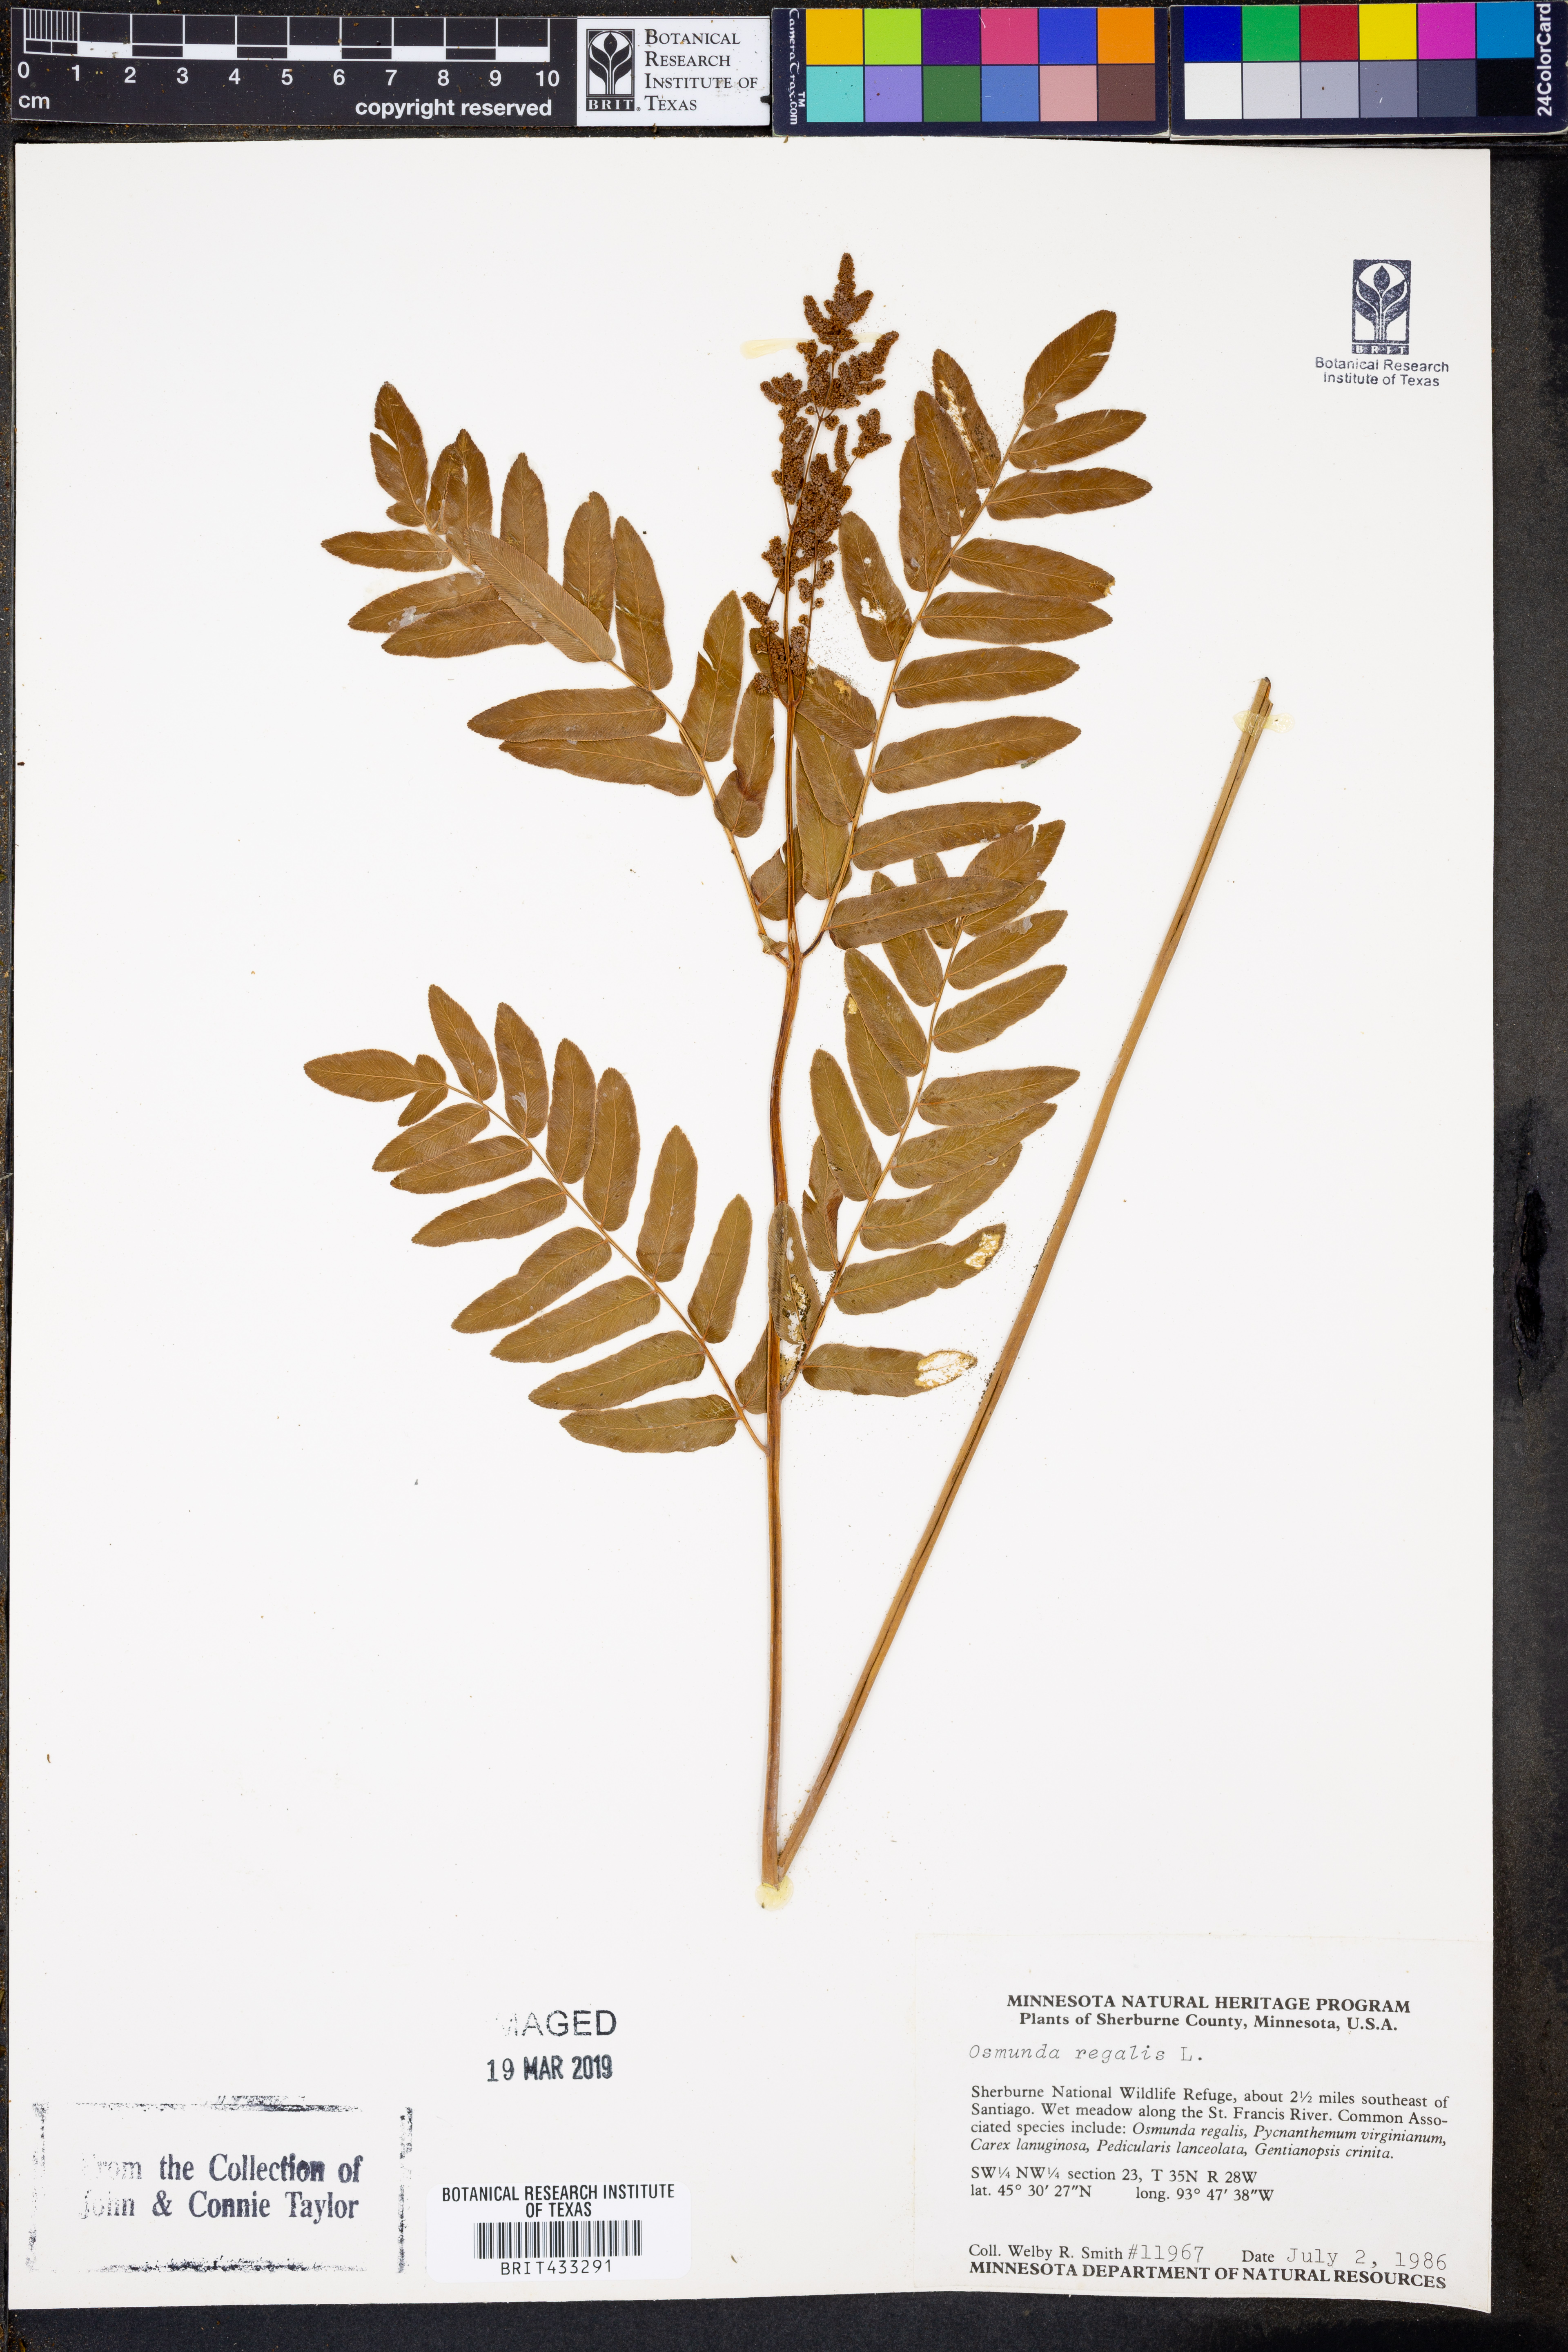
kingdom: Plantae
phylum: Tracheophyta
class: Polypodiopsida
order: Osmundales
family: Osmundaceae
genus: Osmunda
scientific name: Osmunda regalis
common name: Royal fern
